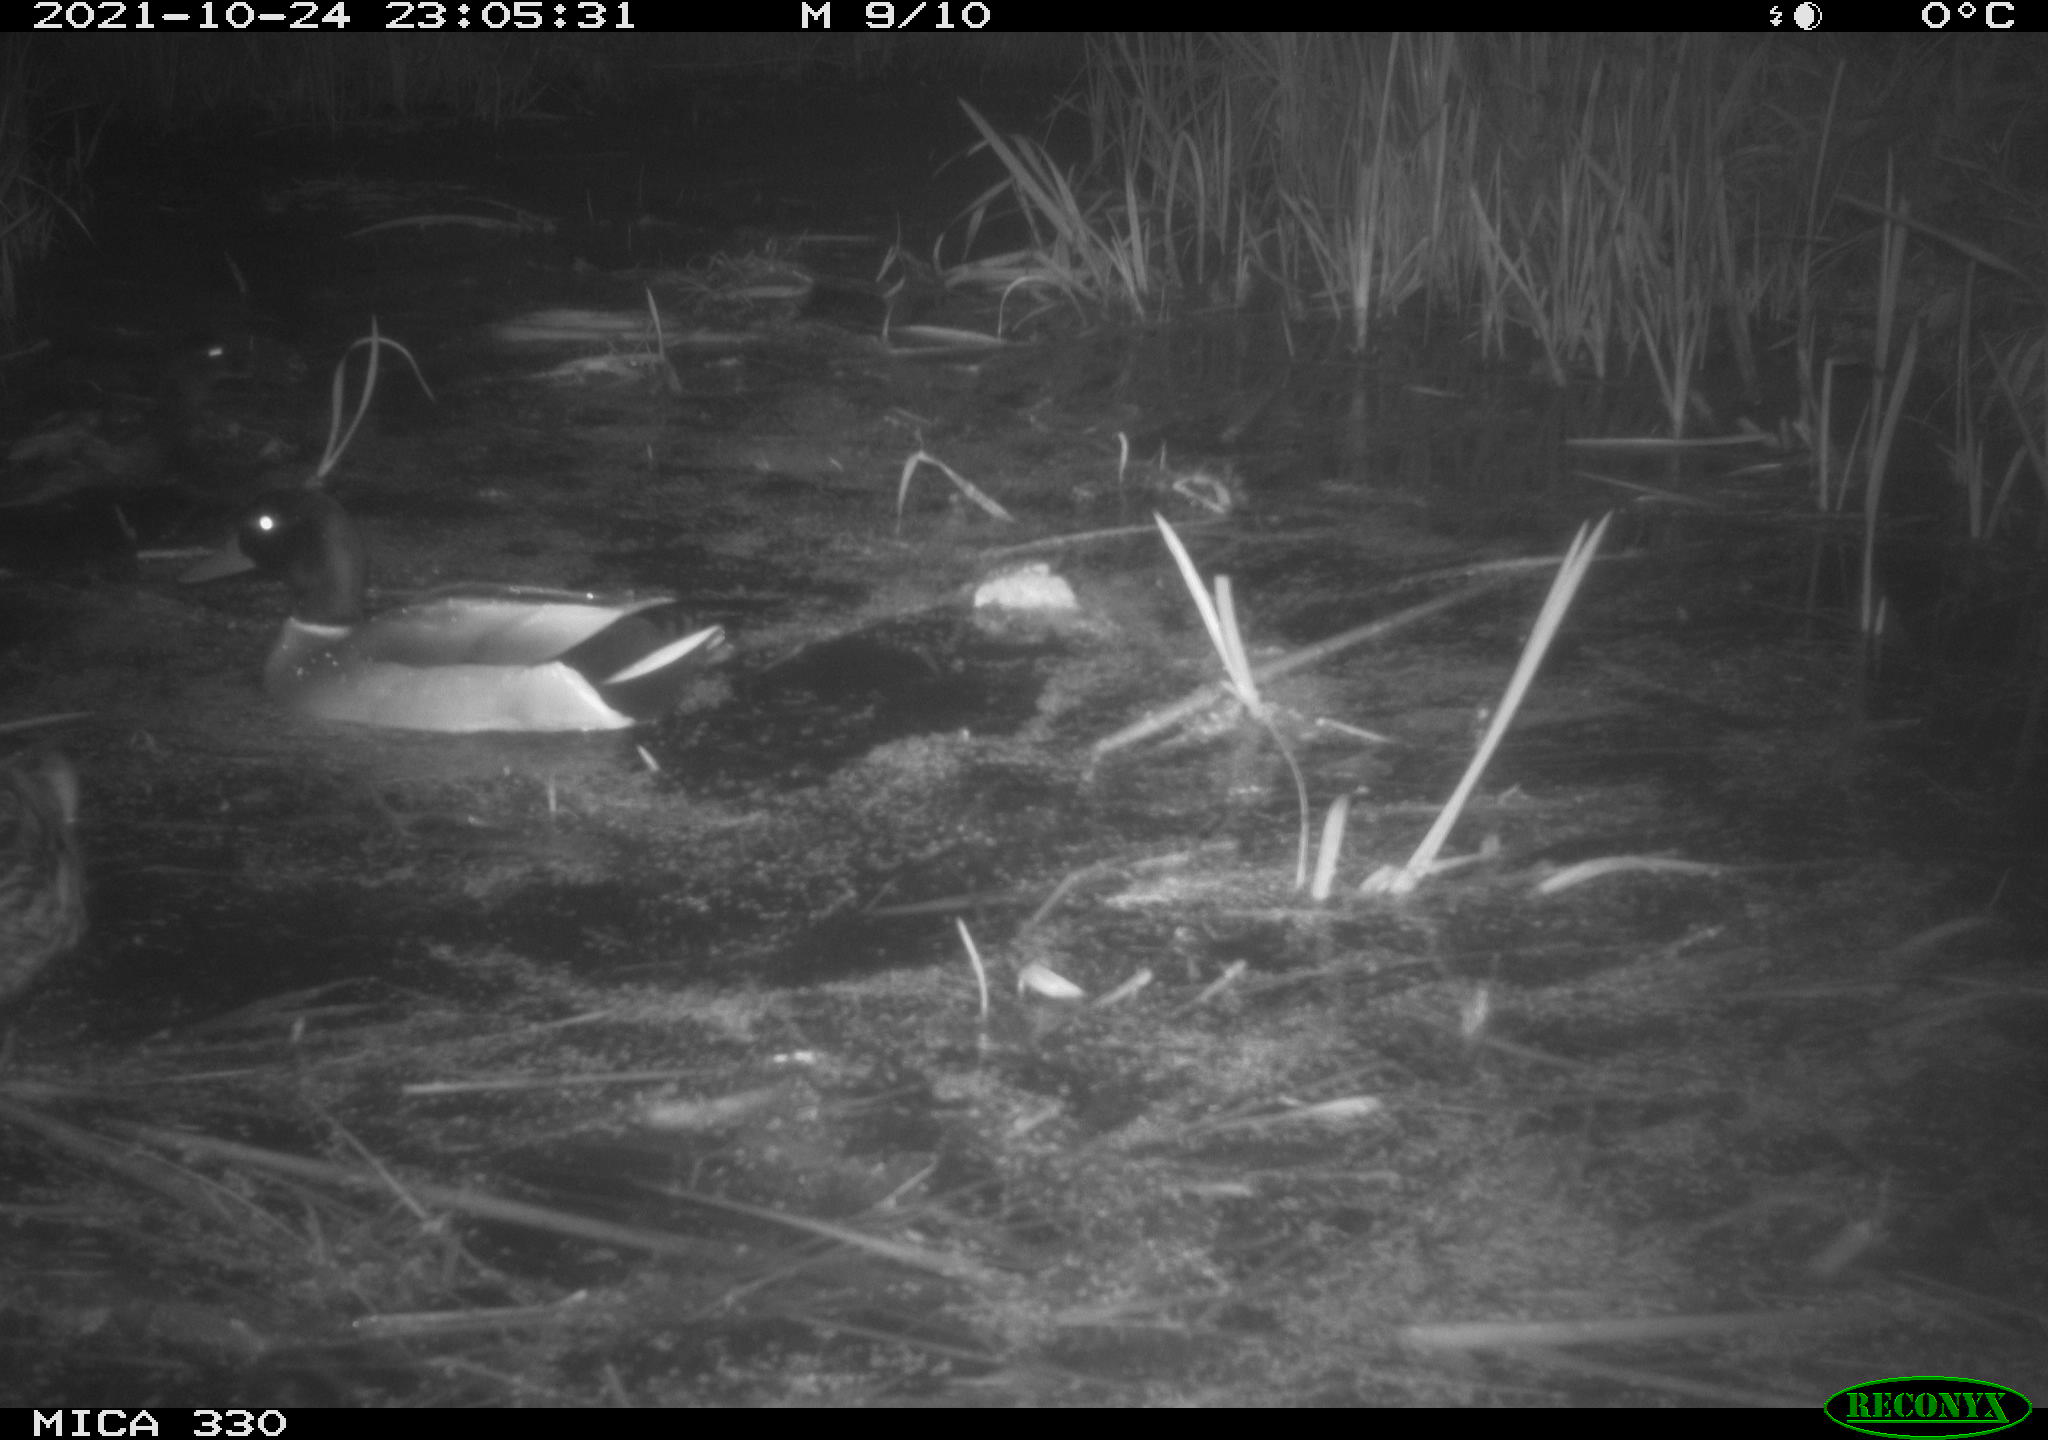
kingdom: Animalia
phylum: Chordata
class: Aves
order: Anseriformes
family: Anatidae
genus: Anas
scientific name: Anas platyrhynchos
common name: Mallard
